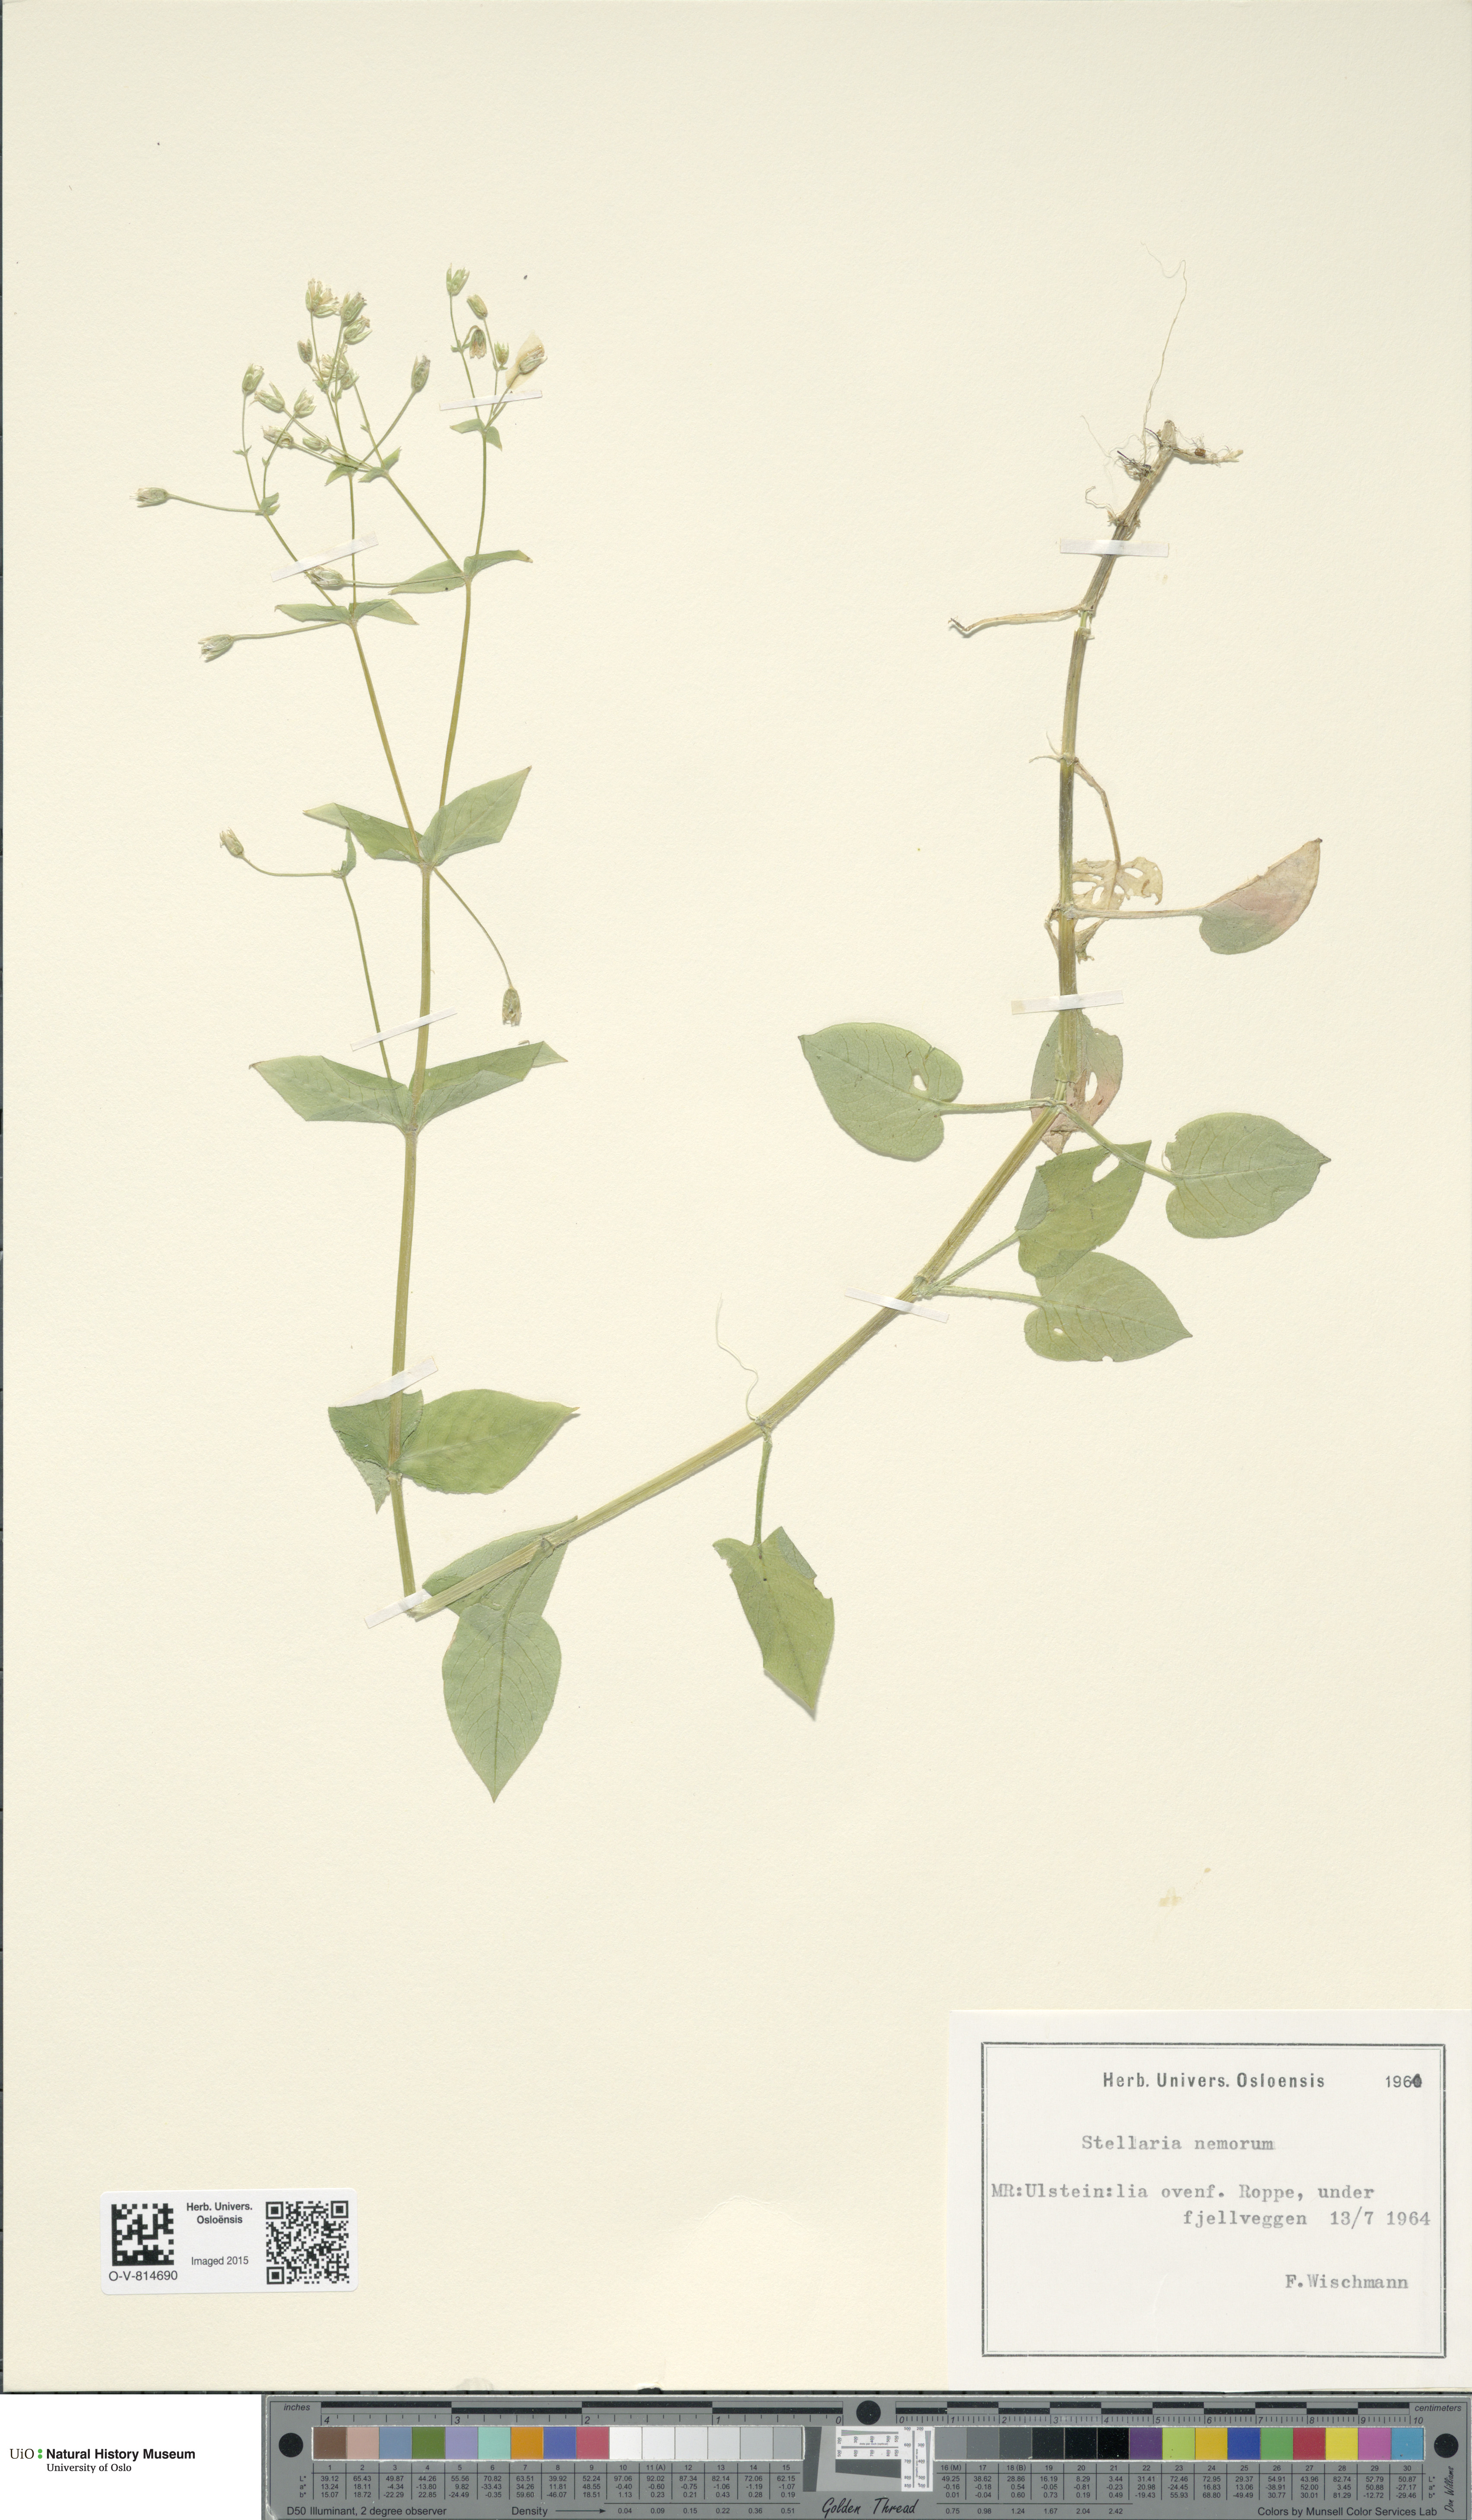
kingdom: Plantae
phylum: Tracheophyta
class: Magnoliopsida
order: Caryophyllales
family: Caryophyllaceae
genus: Stellaria
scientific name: Stellaria nemorum
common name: Wood stitchwort
